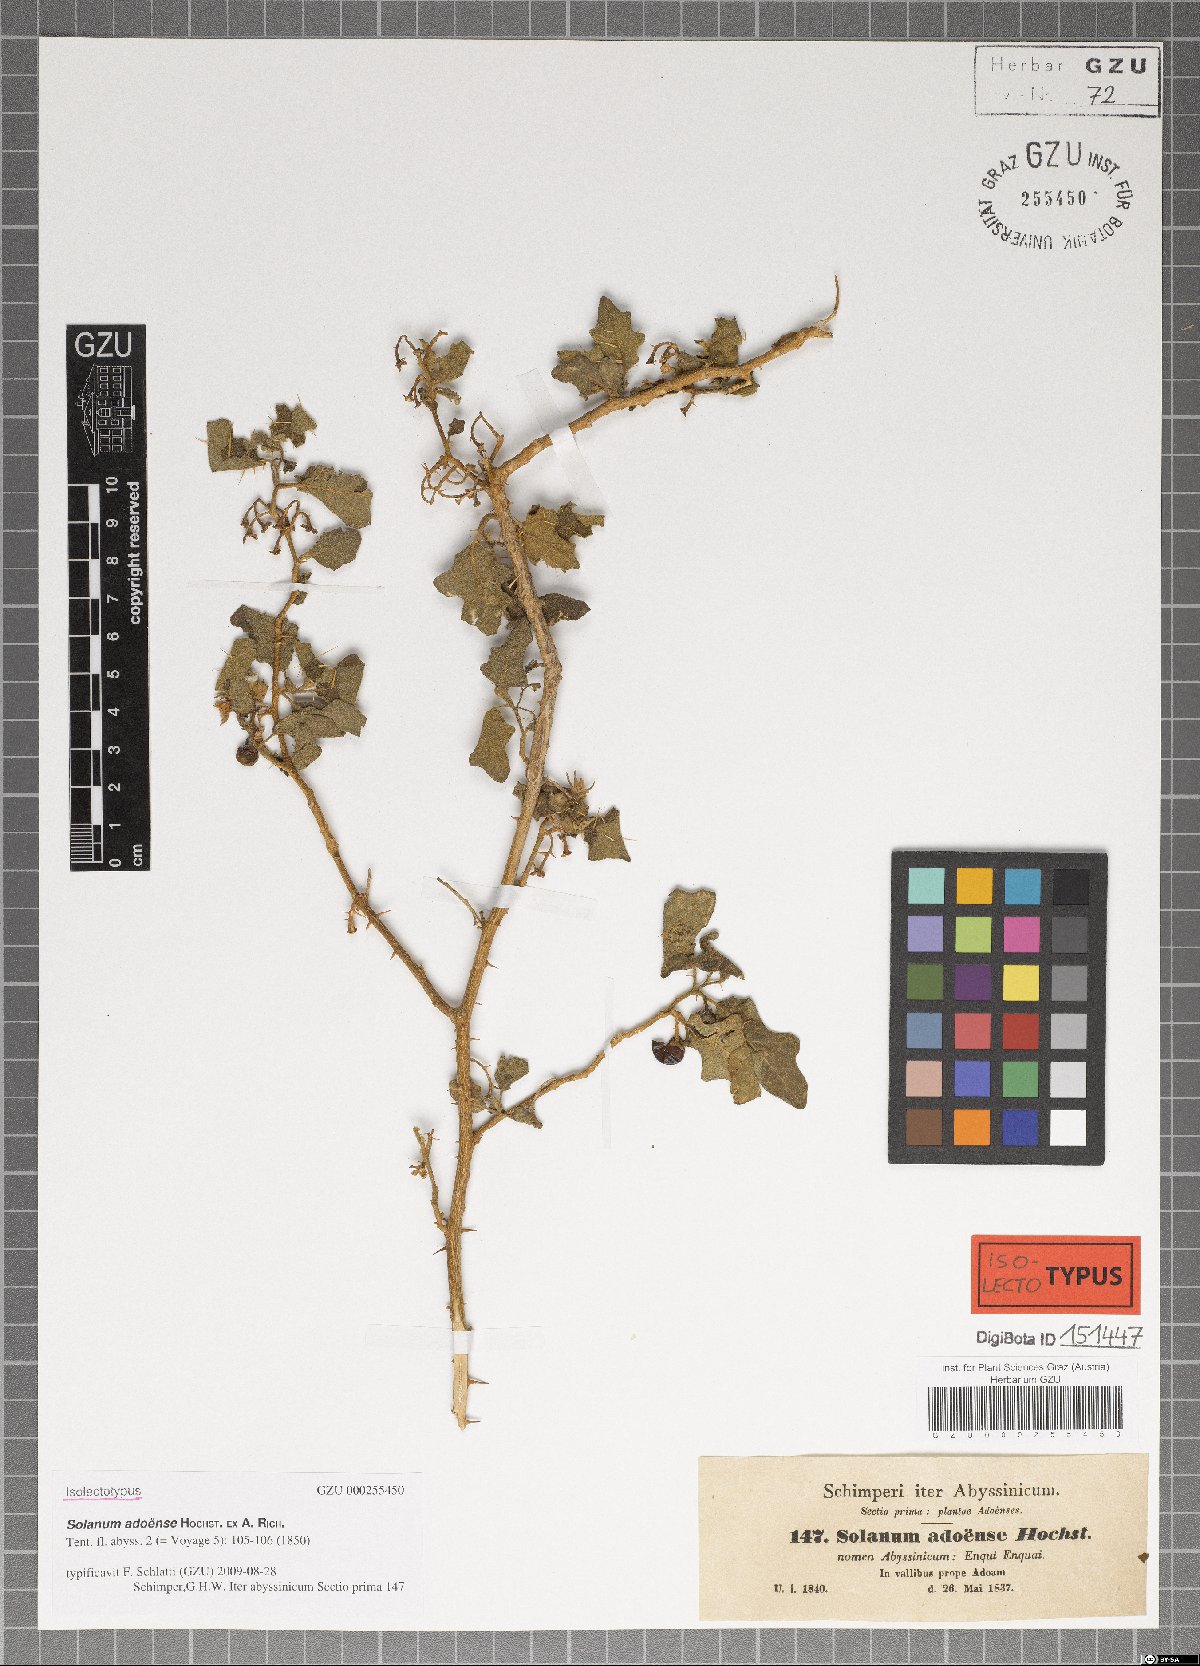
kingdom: Plantae
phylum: Tracheophyta
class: Magnoliopsida
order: Solanales
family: Solanaceae
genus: Solanum
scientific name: Solanum adoense
